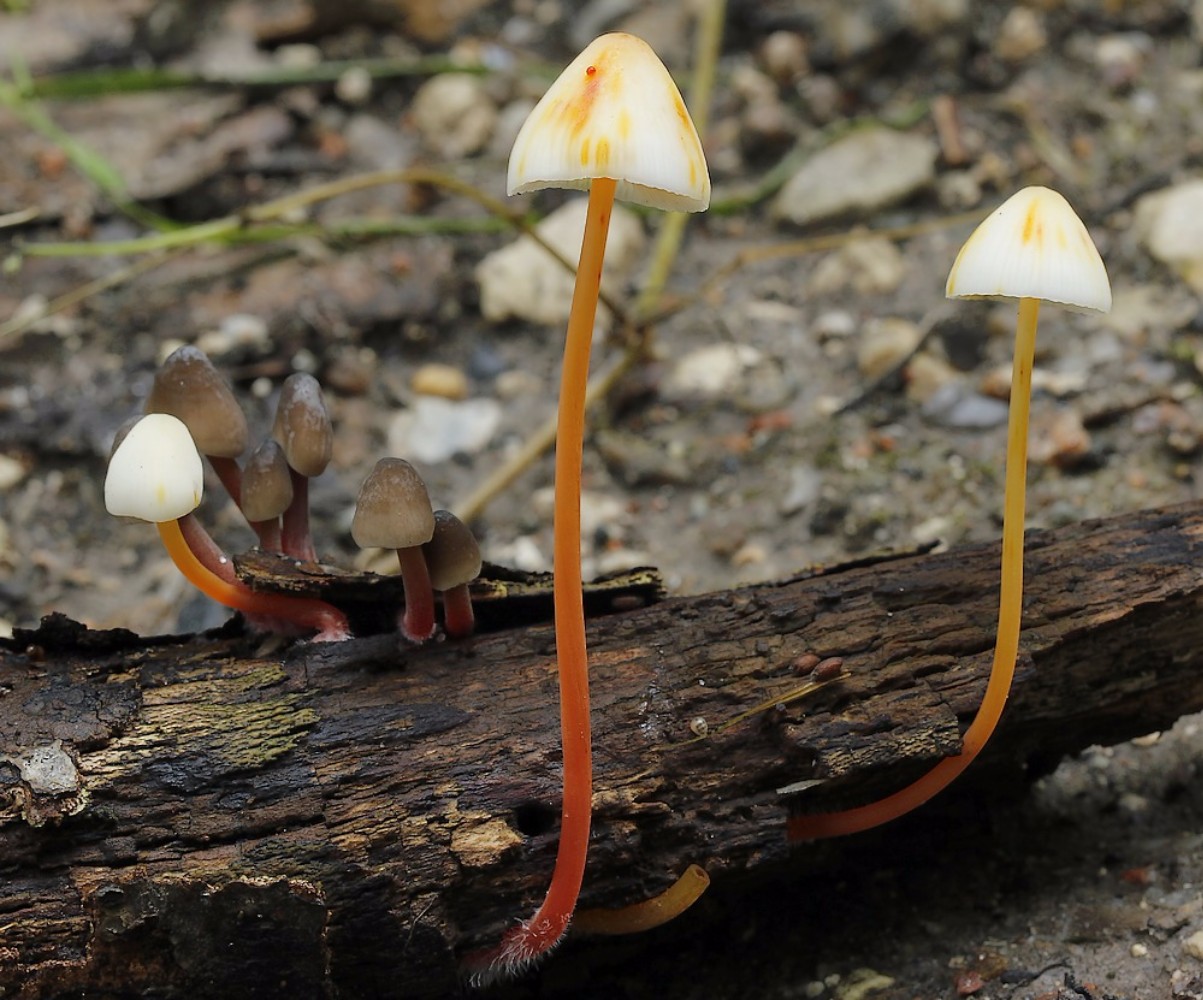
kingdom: Fungi
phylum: Basidiomycota
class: Agaricomycetes
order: Agaricales
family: Mycenaceae
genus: Mycena
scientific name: Mycena crocata
